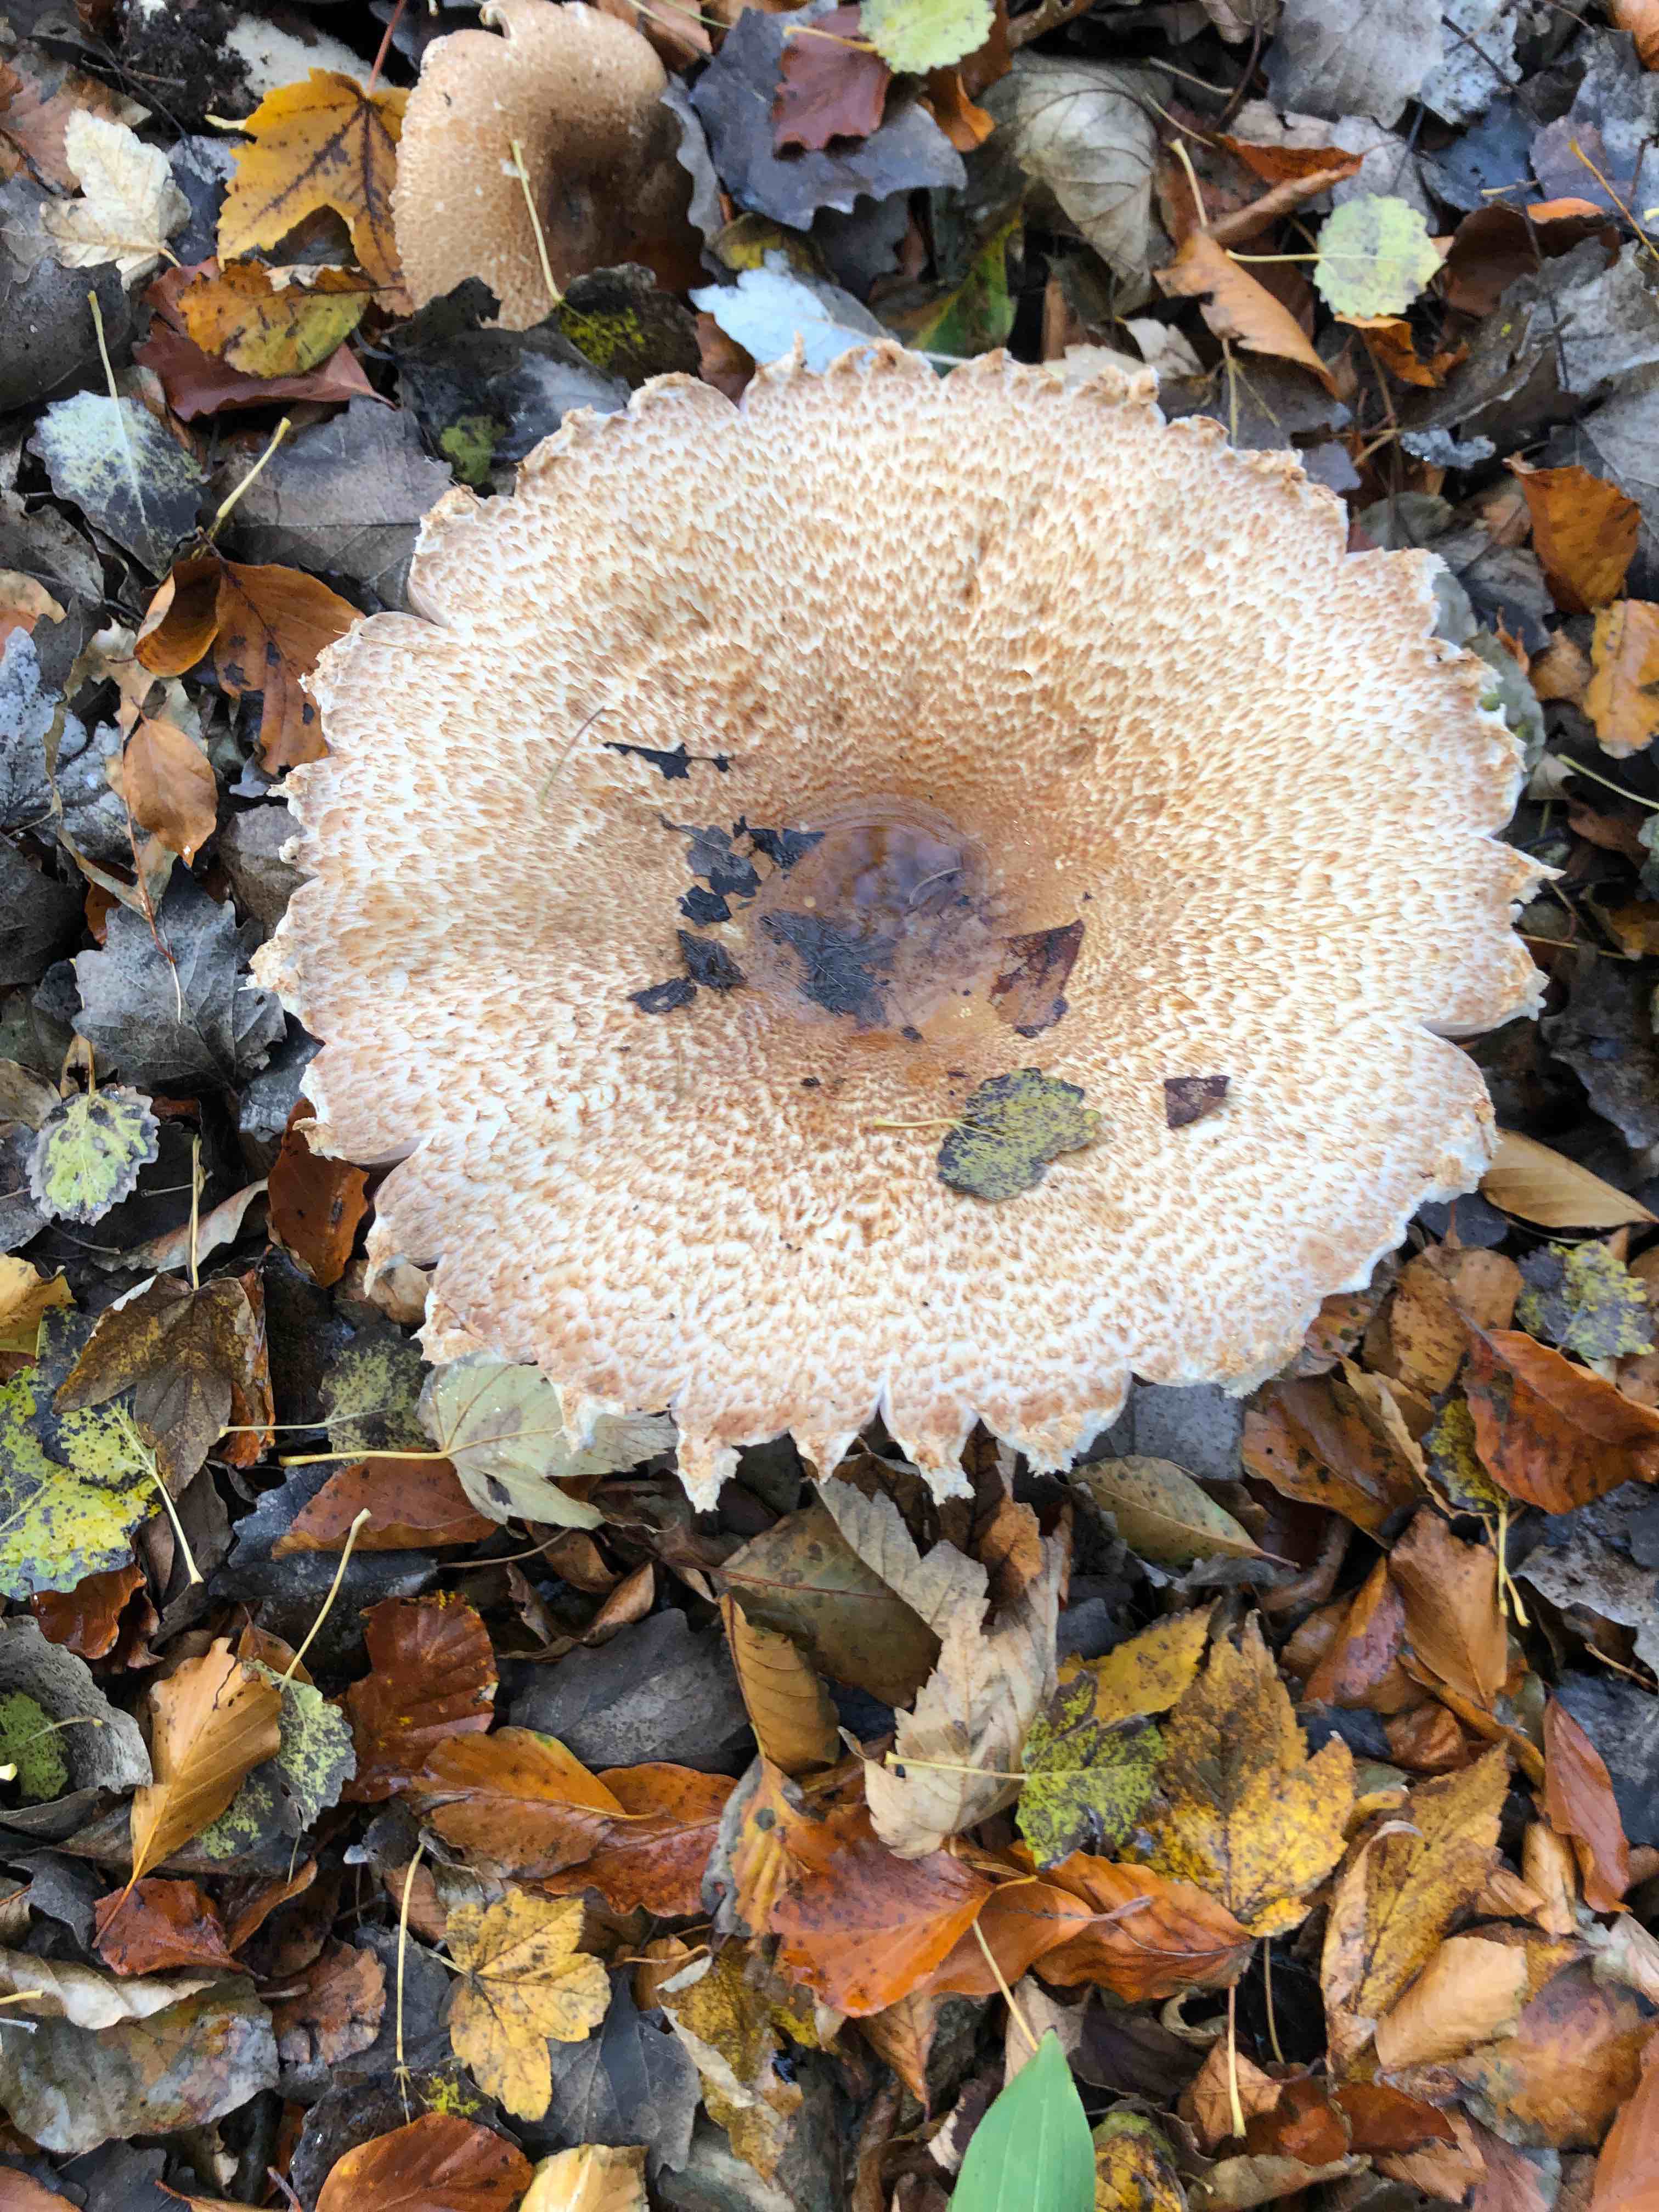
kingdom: Fungi
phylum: Basidiomycota
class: Agaricomycetes
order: Agaricales
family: Agaricaceae
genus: Agaricus
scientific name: Agaricus augustus
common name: prægtig champignon
